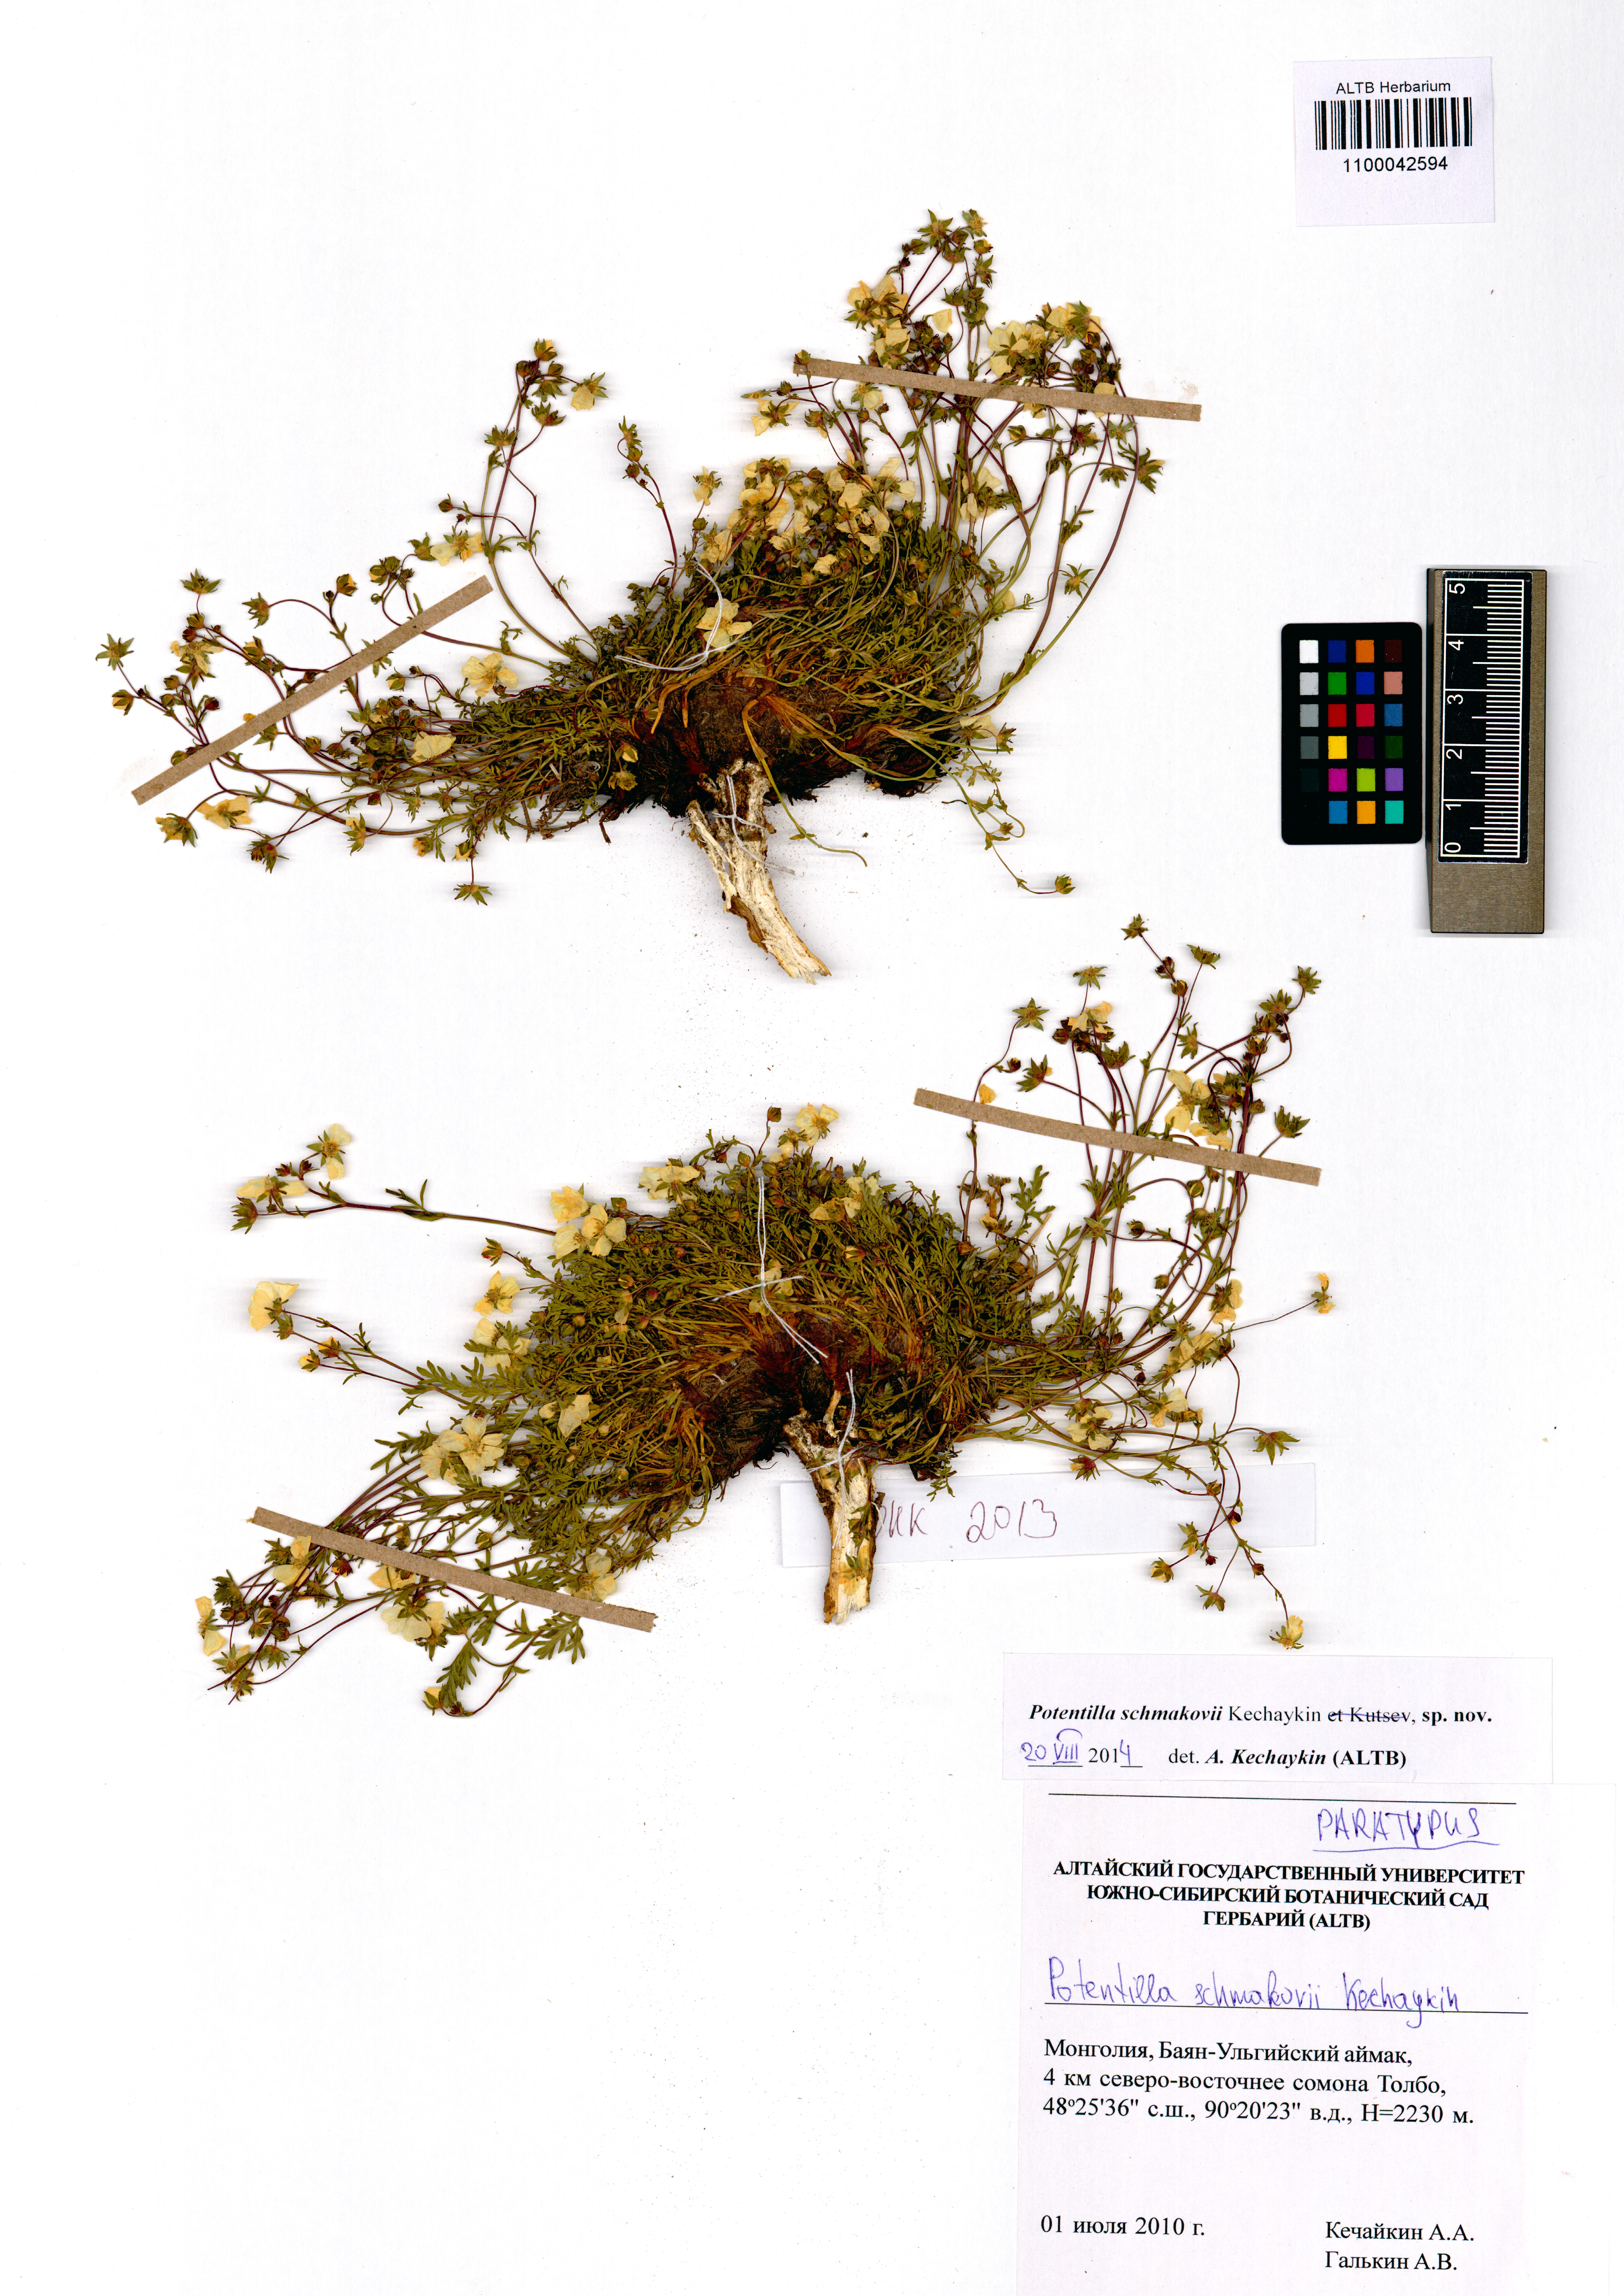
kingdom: Plantae
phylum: Tracheophyta
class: Magnoliopsida
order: Rosales
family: Rosaceae
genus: Potentilla
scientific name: Potentilla schmakovii
